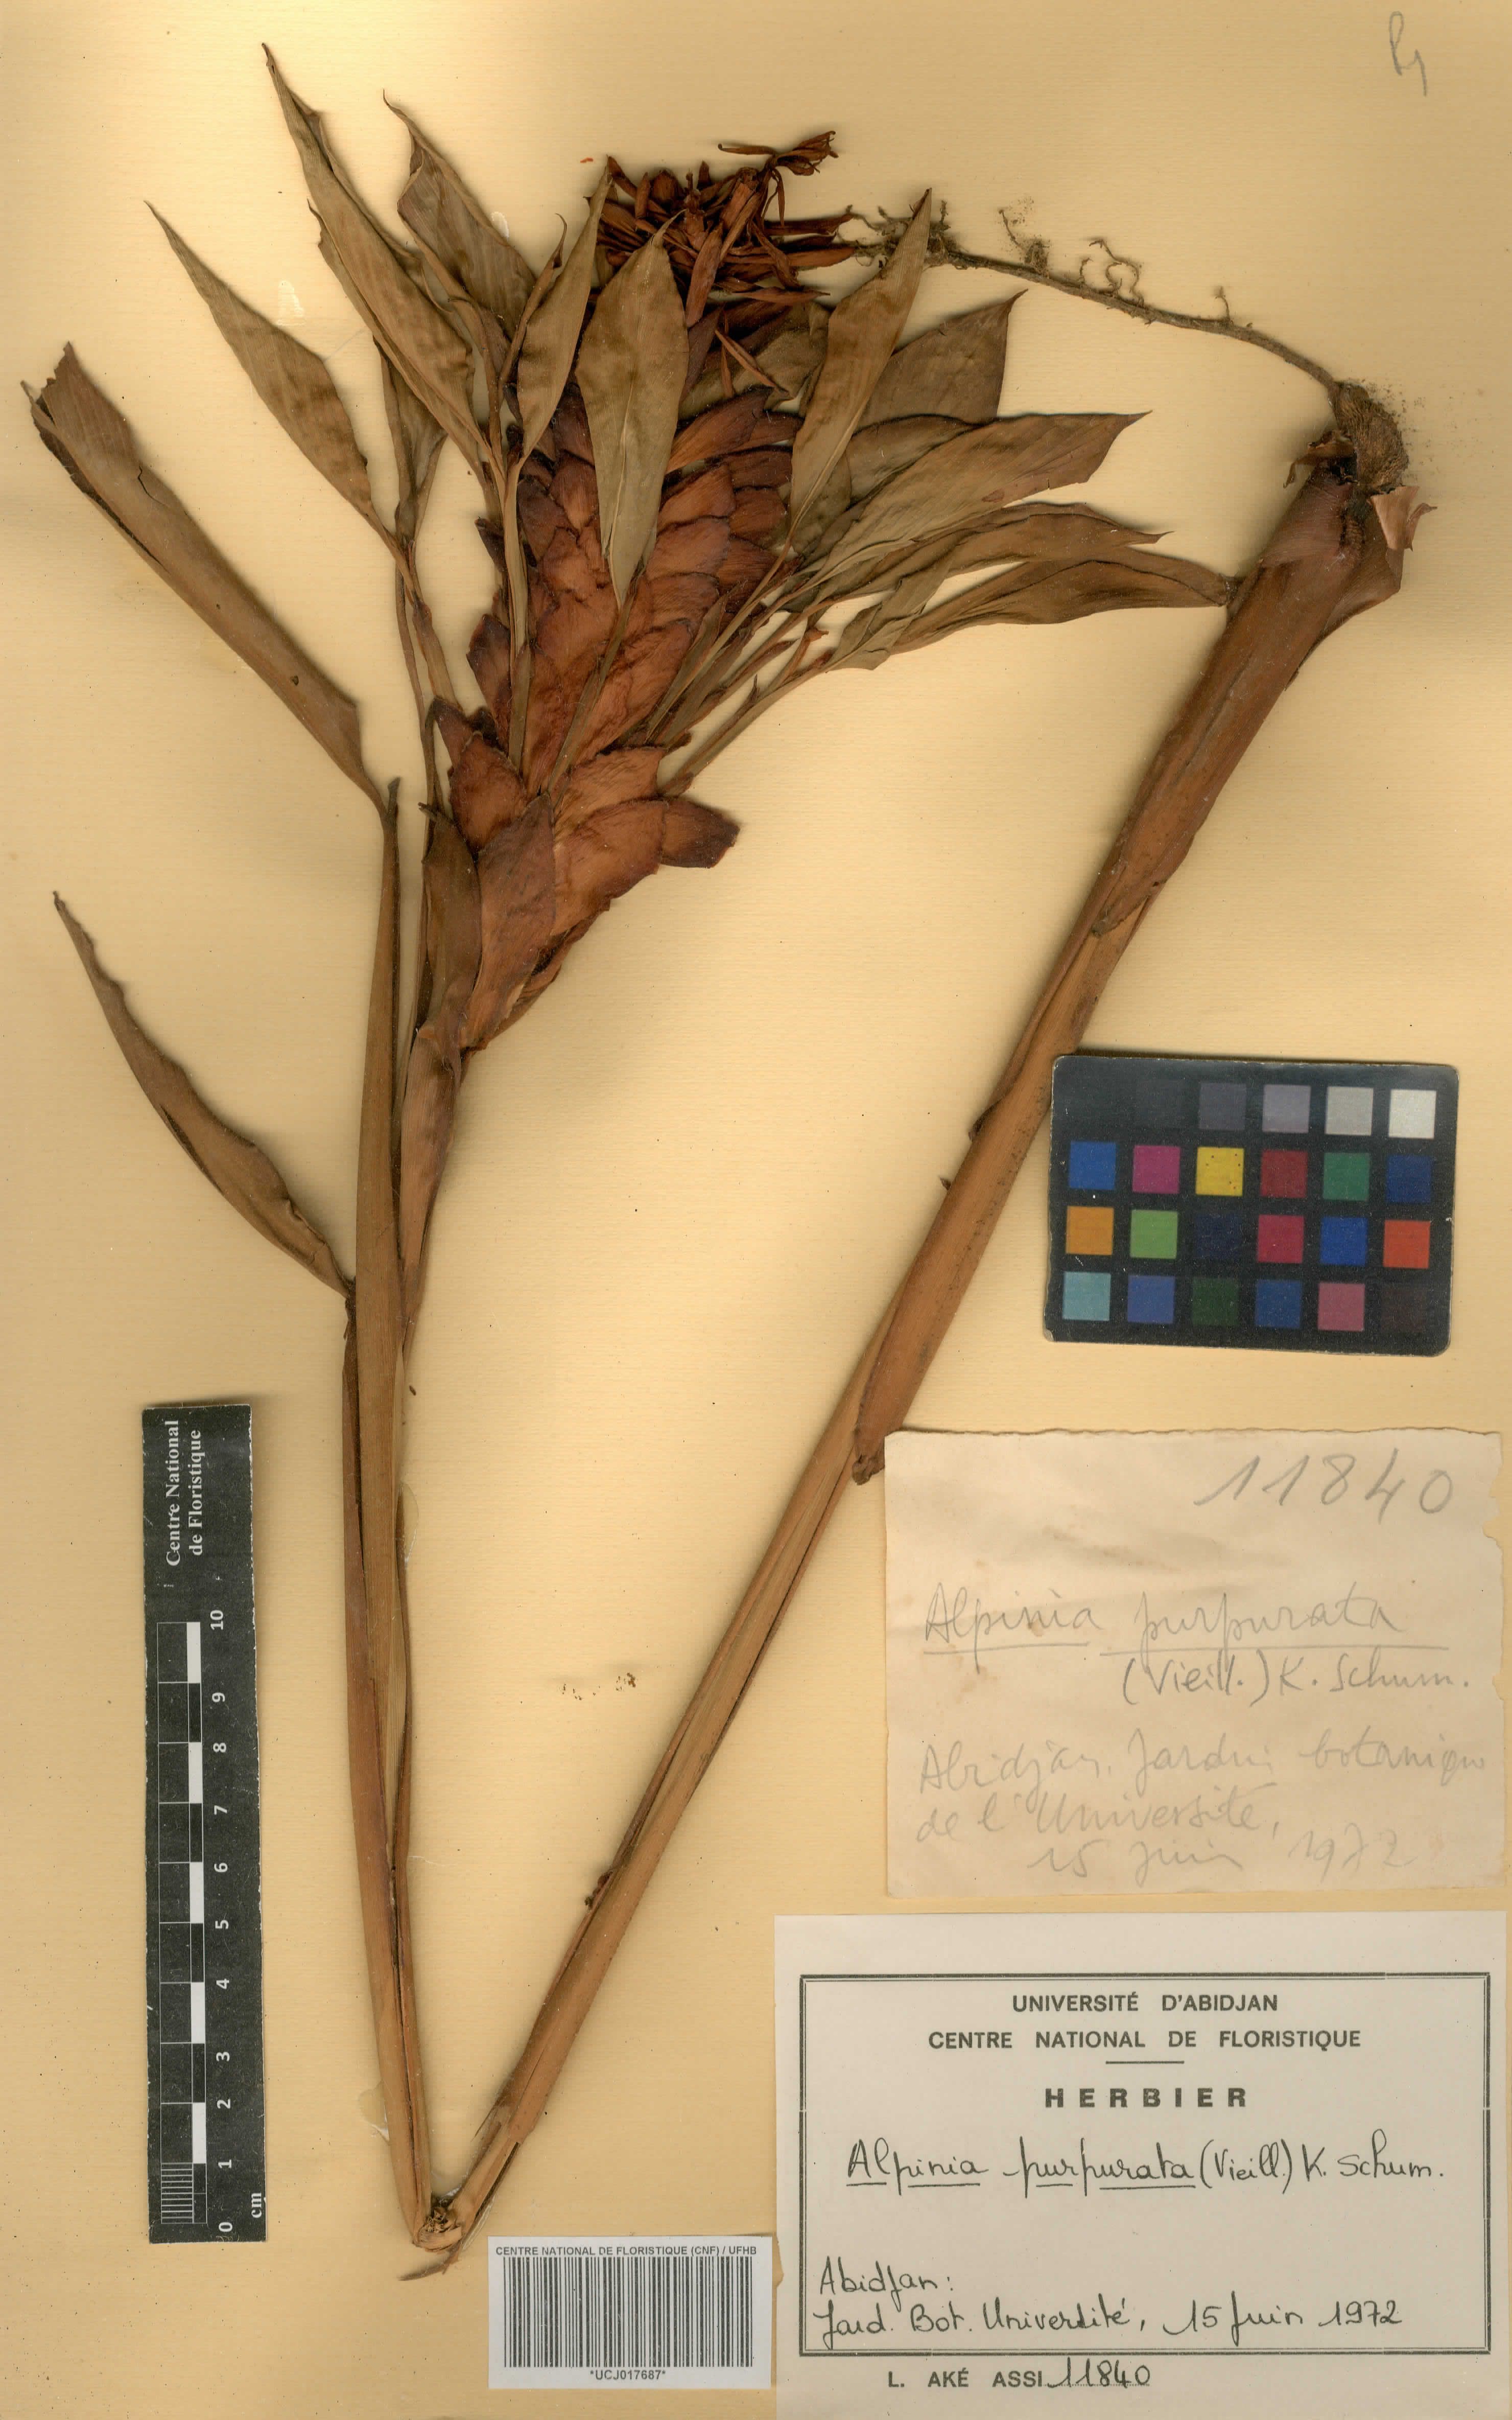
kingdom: Plantae
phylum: Tracheophyta
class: Liliopsida
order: Zingiberales
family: Zingiberaceae
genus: Alpinia
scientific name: Alpinia purpurata
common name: Red ginger
